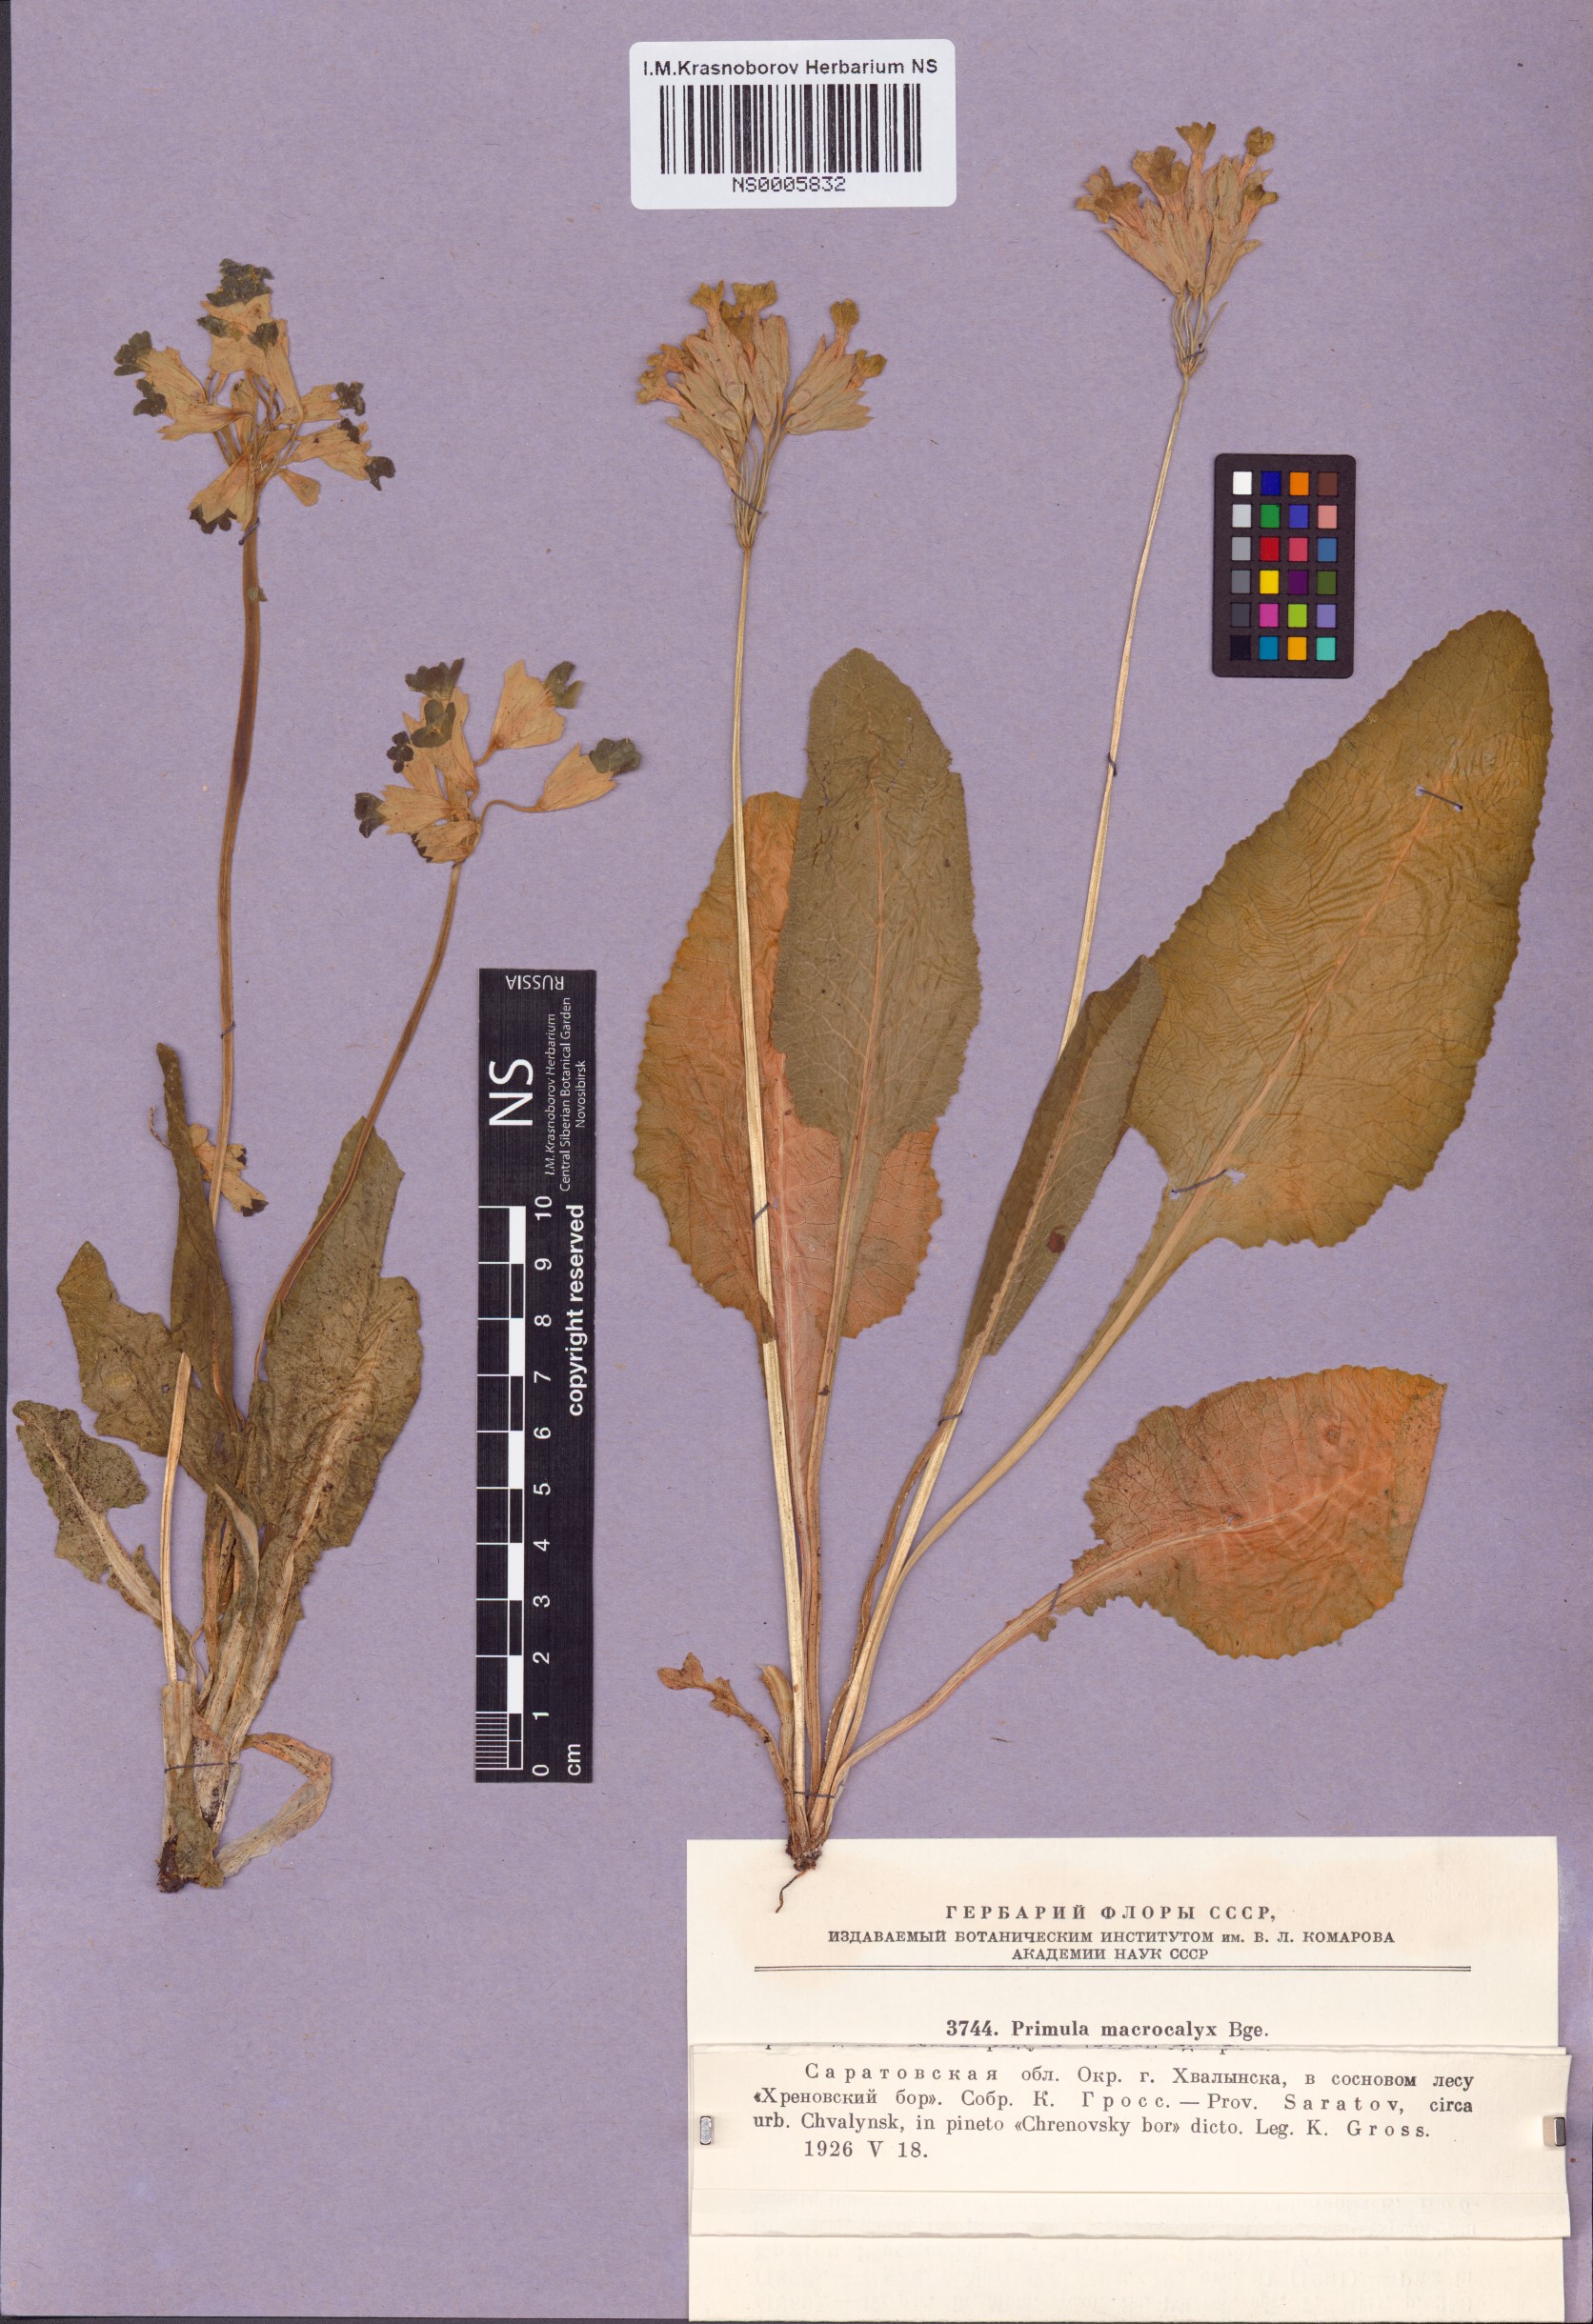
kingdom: Plantae
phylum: Tracheophyta
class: Magnoliopsida
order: Ericales
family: Primulaceae
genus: Primula
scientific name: Primula veris
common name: Cowslip
